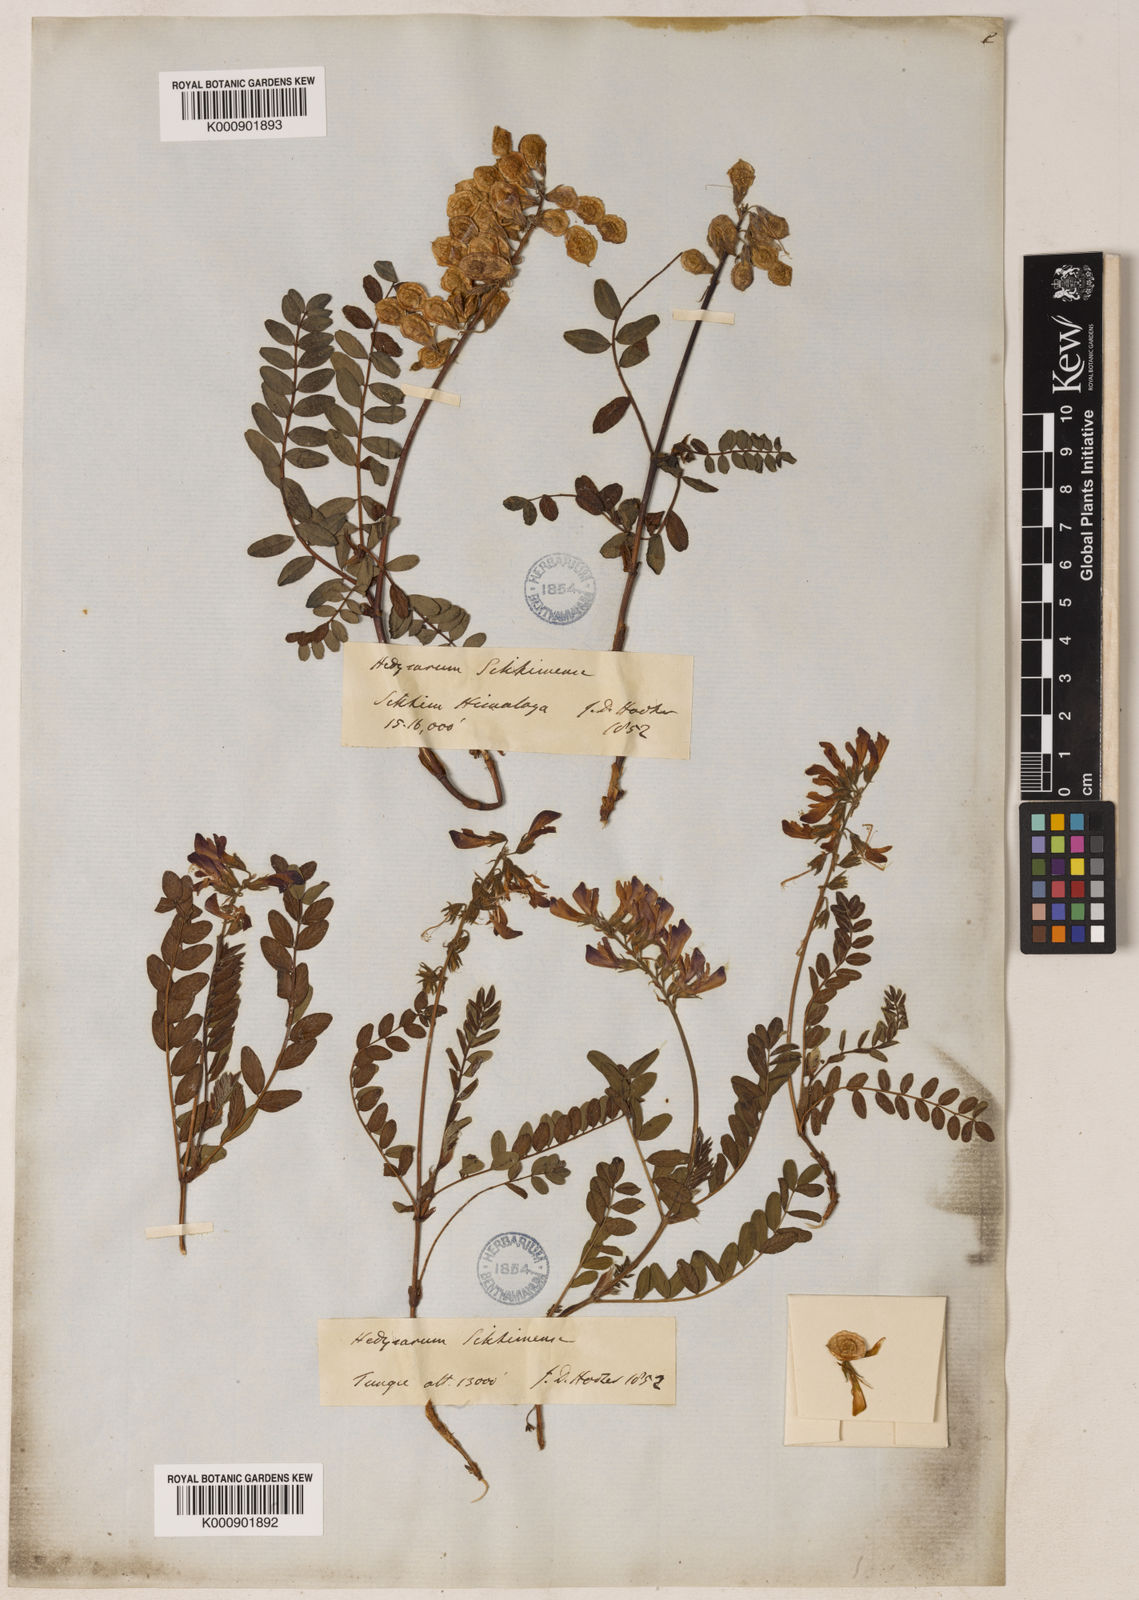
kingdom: Plantae
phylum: Tracheophyta
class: Magnoliopsida
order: Fabales
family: Fabaceae
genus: Hedysarum
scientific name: Hedysarum sikkimense
